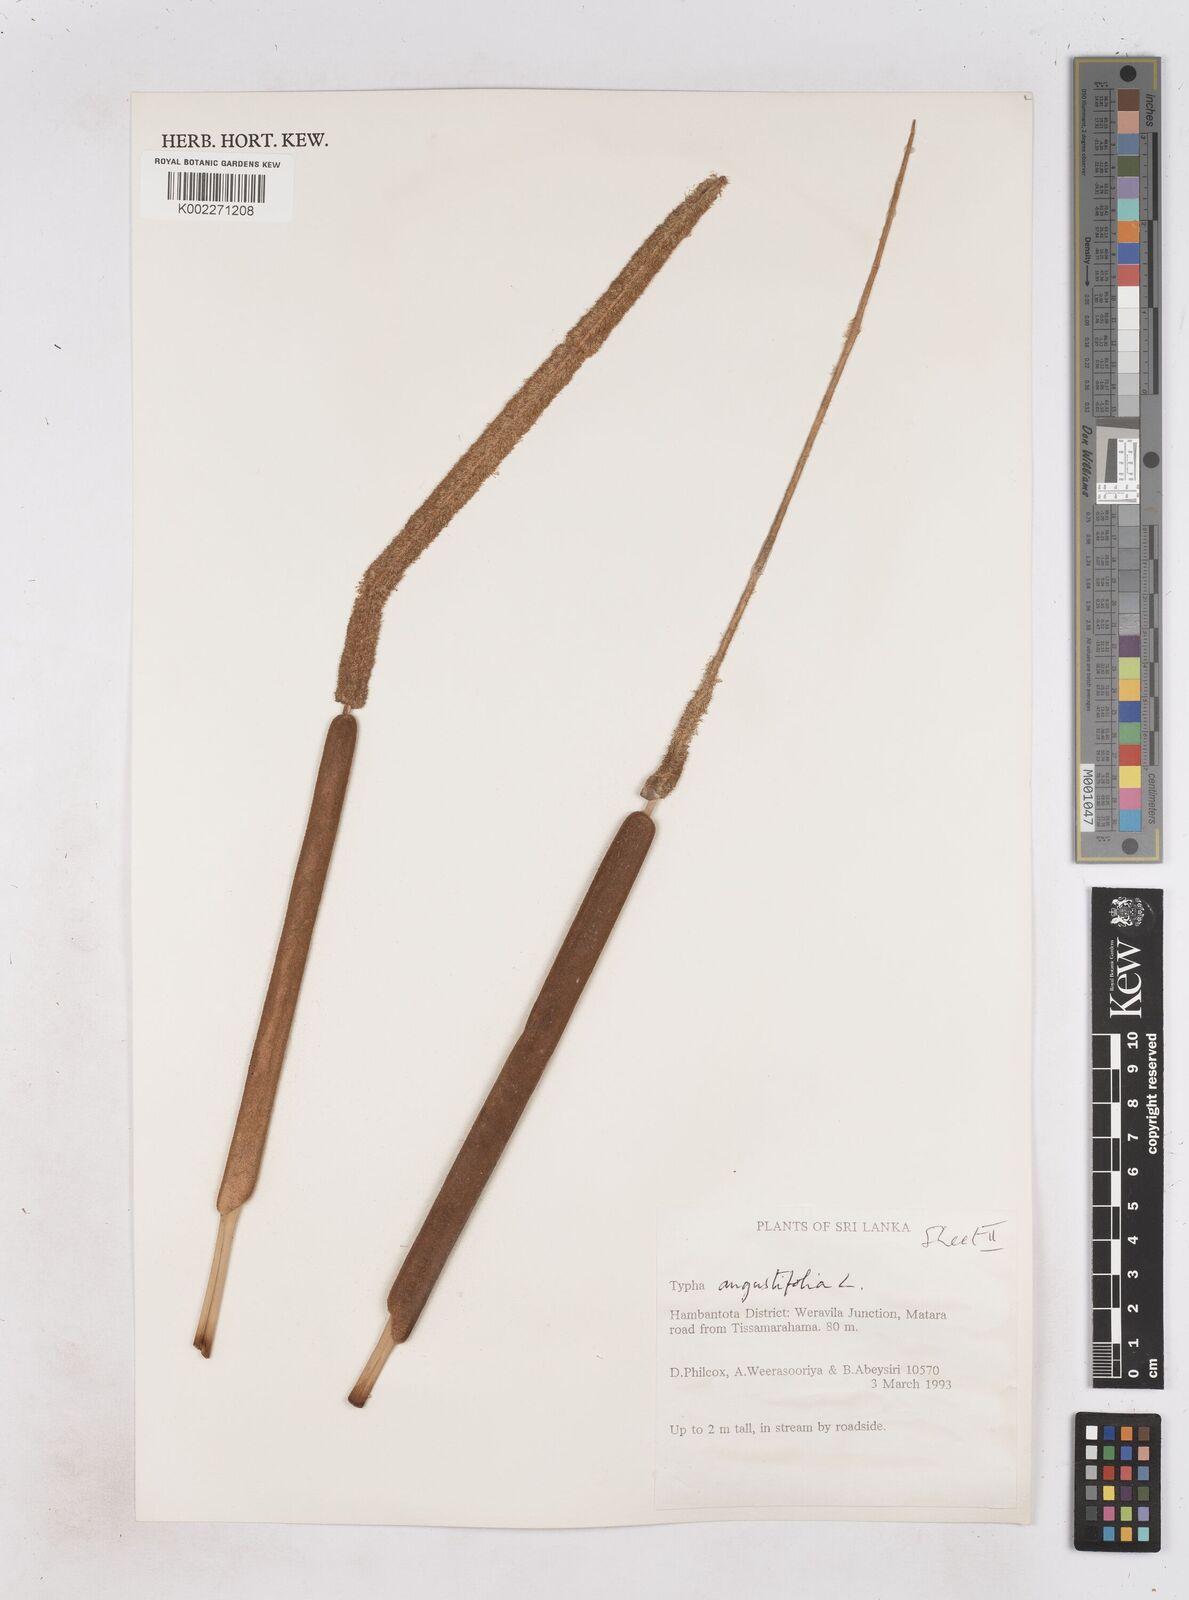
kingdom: Plantae
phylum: Tracheophyta
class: Liliopsida
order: Poales
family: Typhaceae
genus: Typha
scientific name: Typha domingensis
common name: Southern cattail
